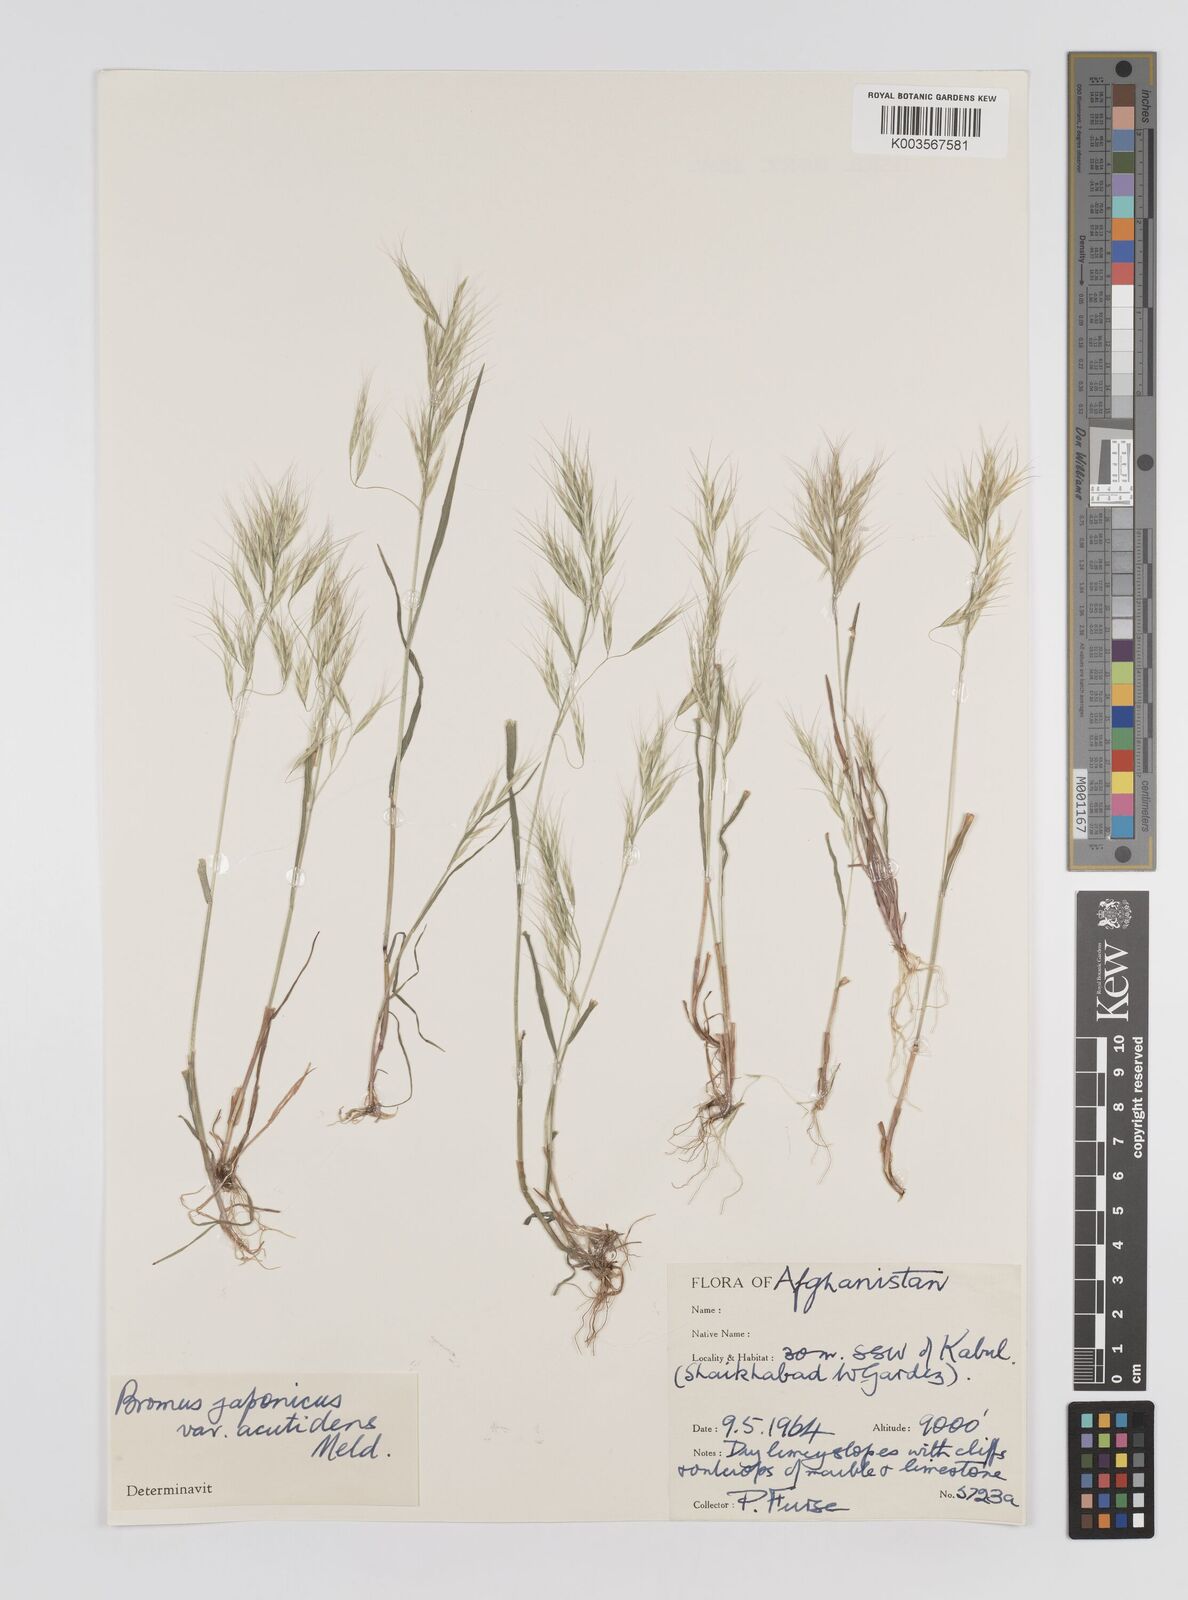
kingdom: Plantae
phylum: Tracheophyta
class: Liliopsida
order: Poales
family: Poaceae
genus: Bromus
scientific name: Bromus pectinatus
